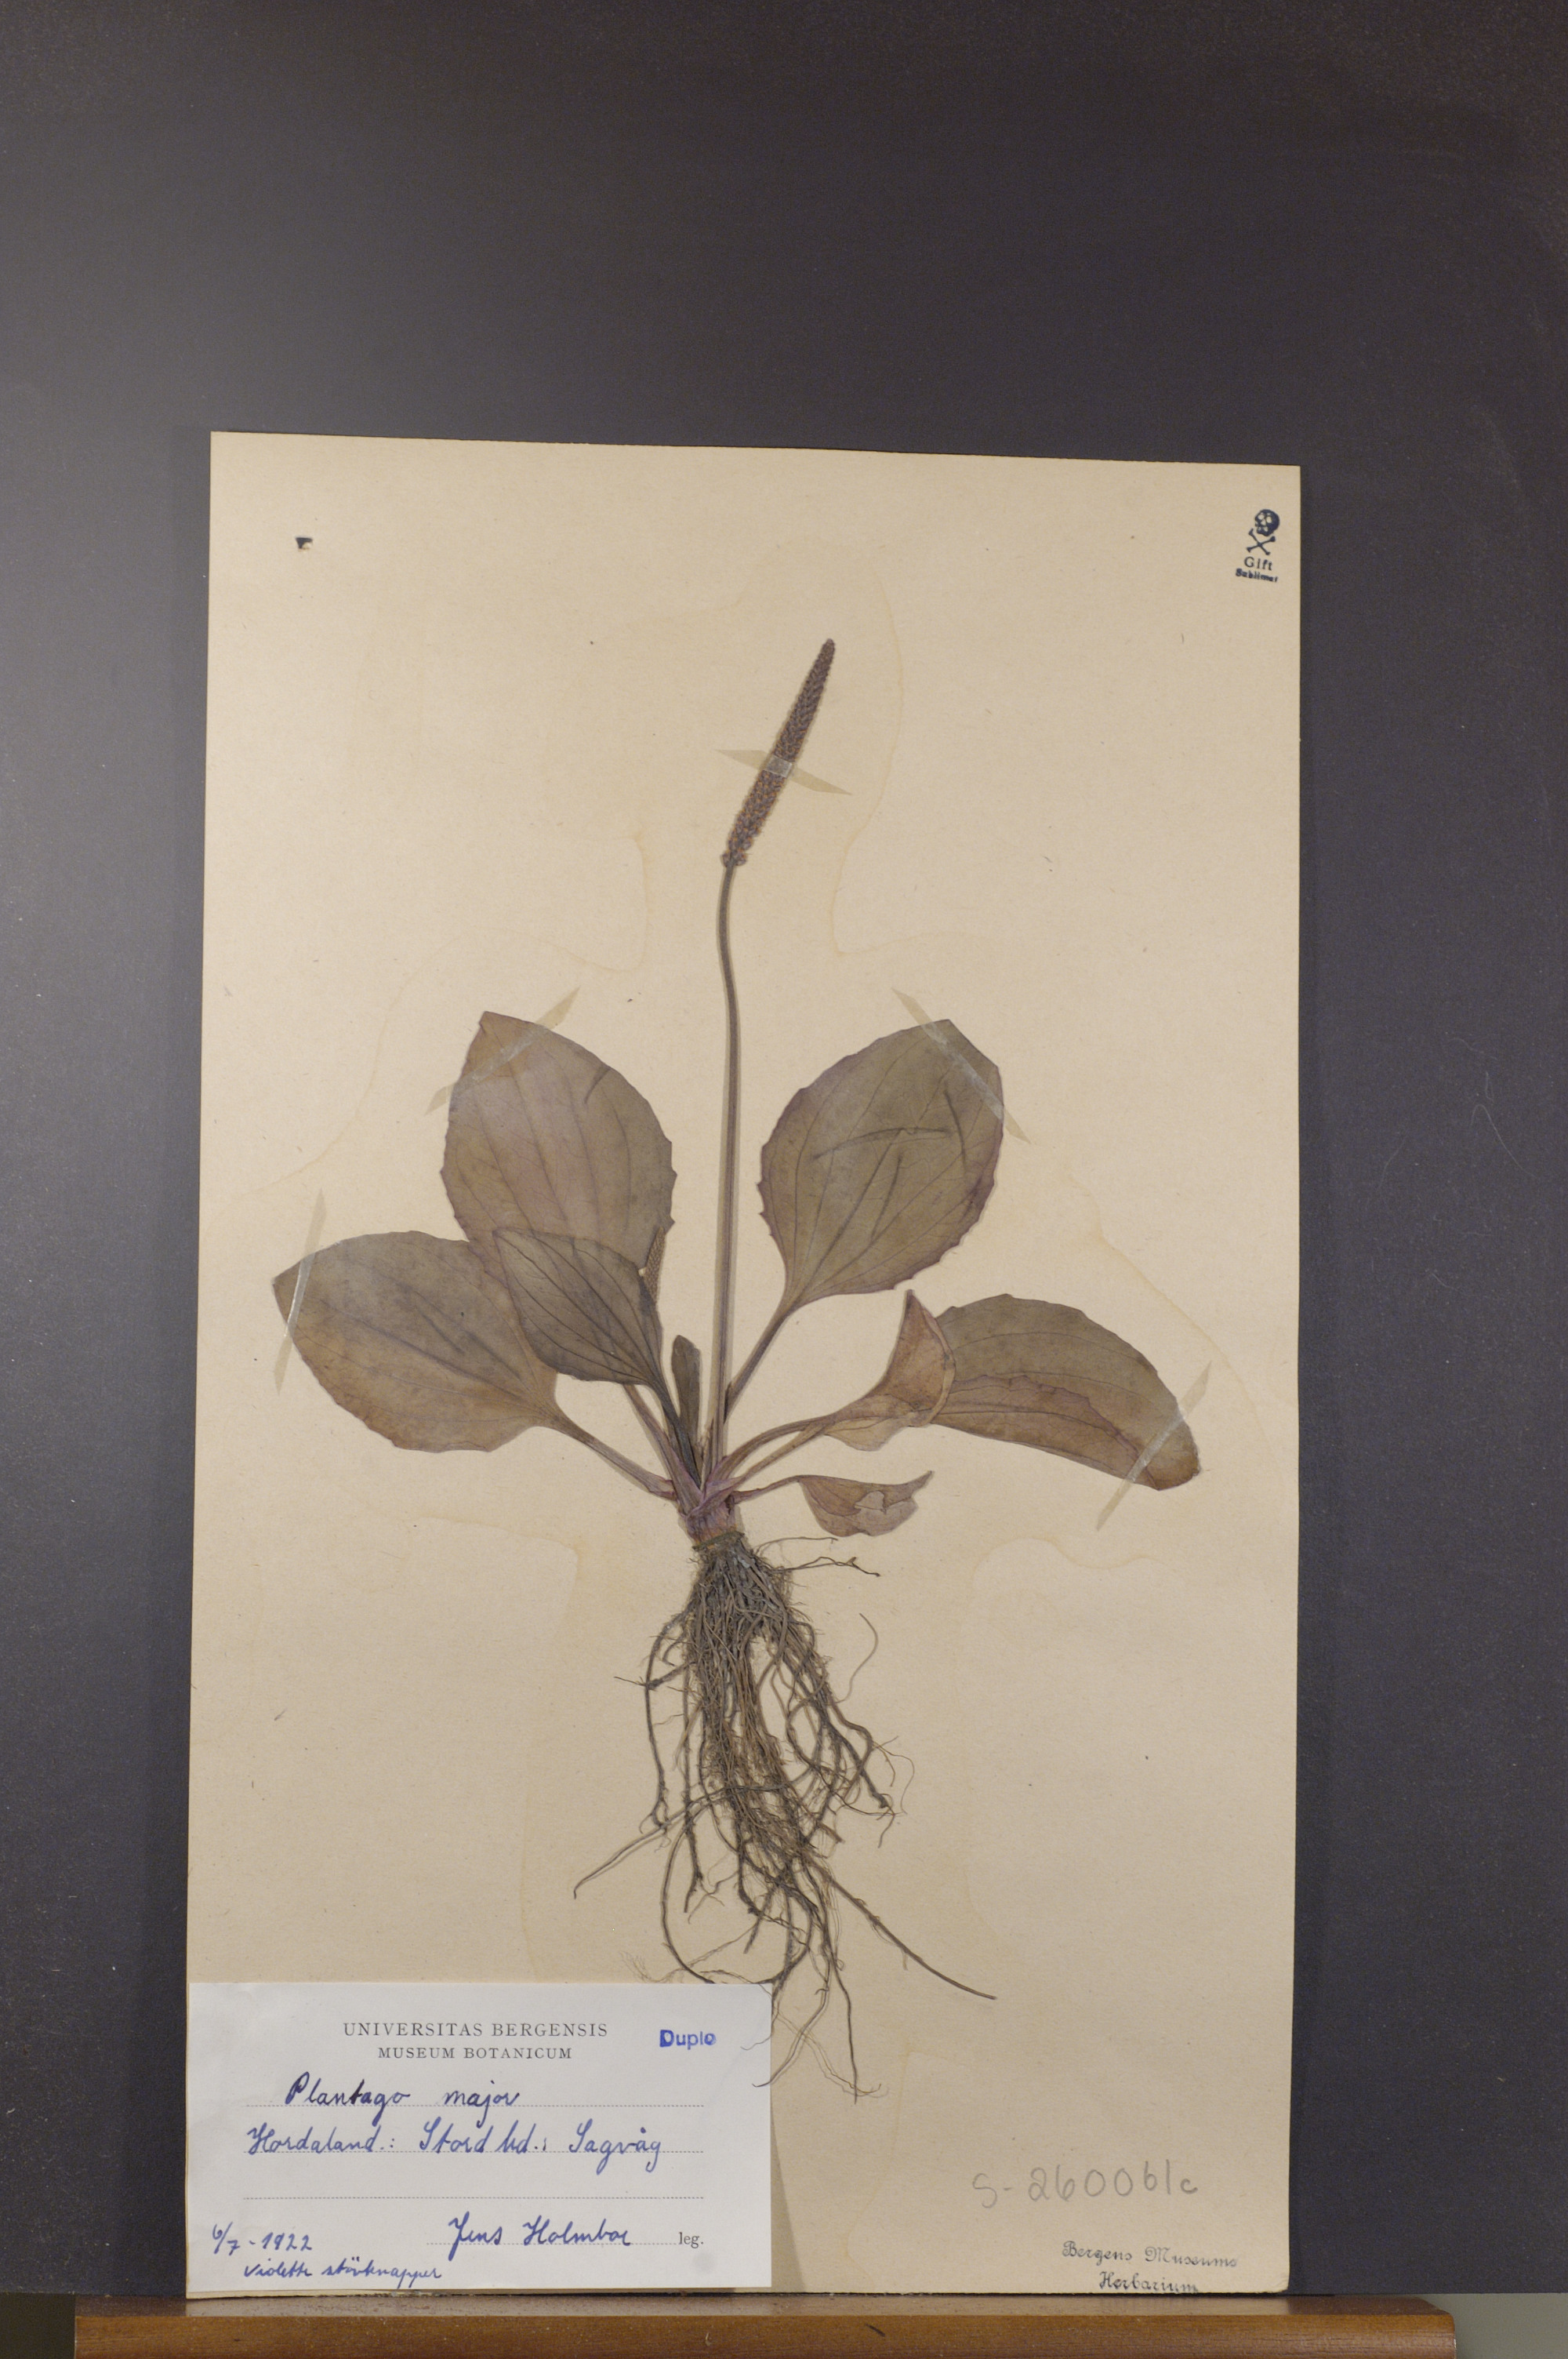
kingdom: Plantae
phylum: Tracheophyta
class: Magnoliopsida
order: Lamiales
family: Plantaginaceae
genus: Plantago
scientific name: Plantago major
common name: Common plantain
